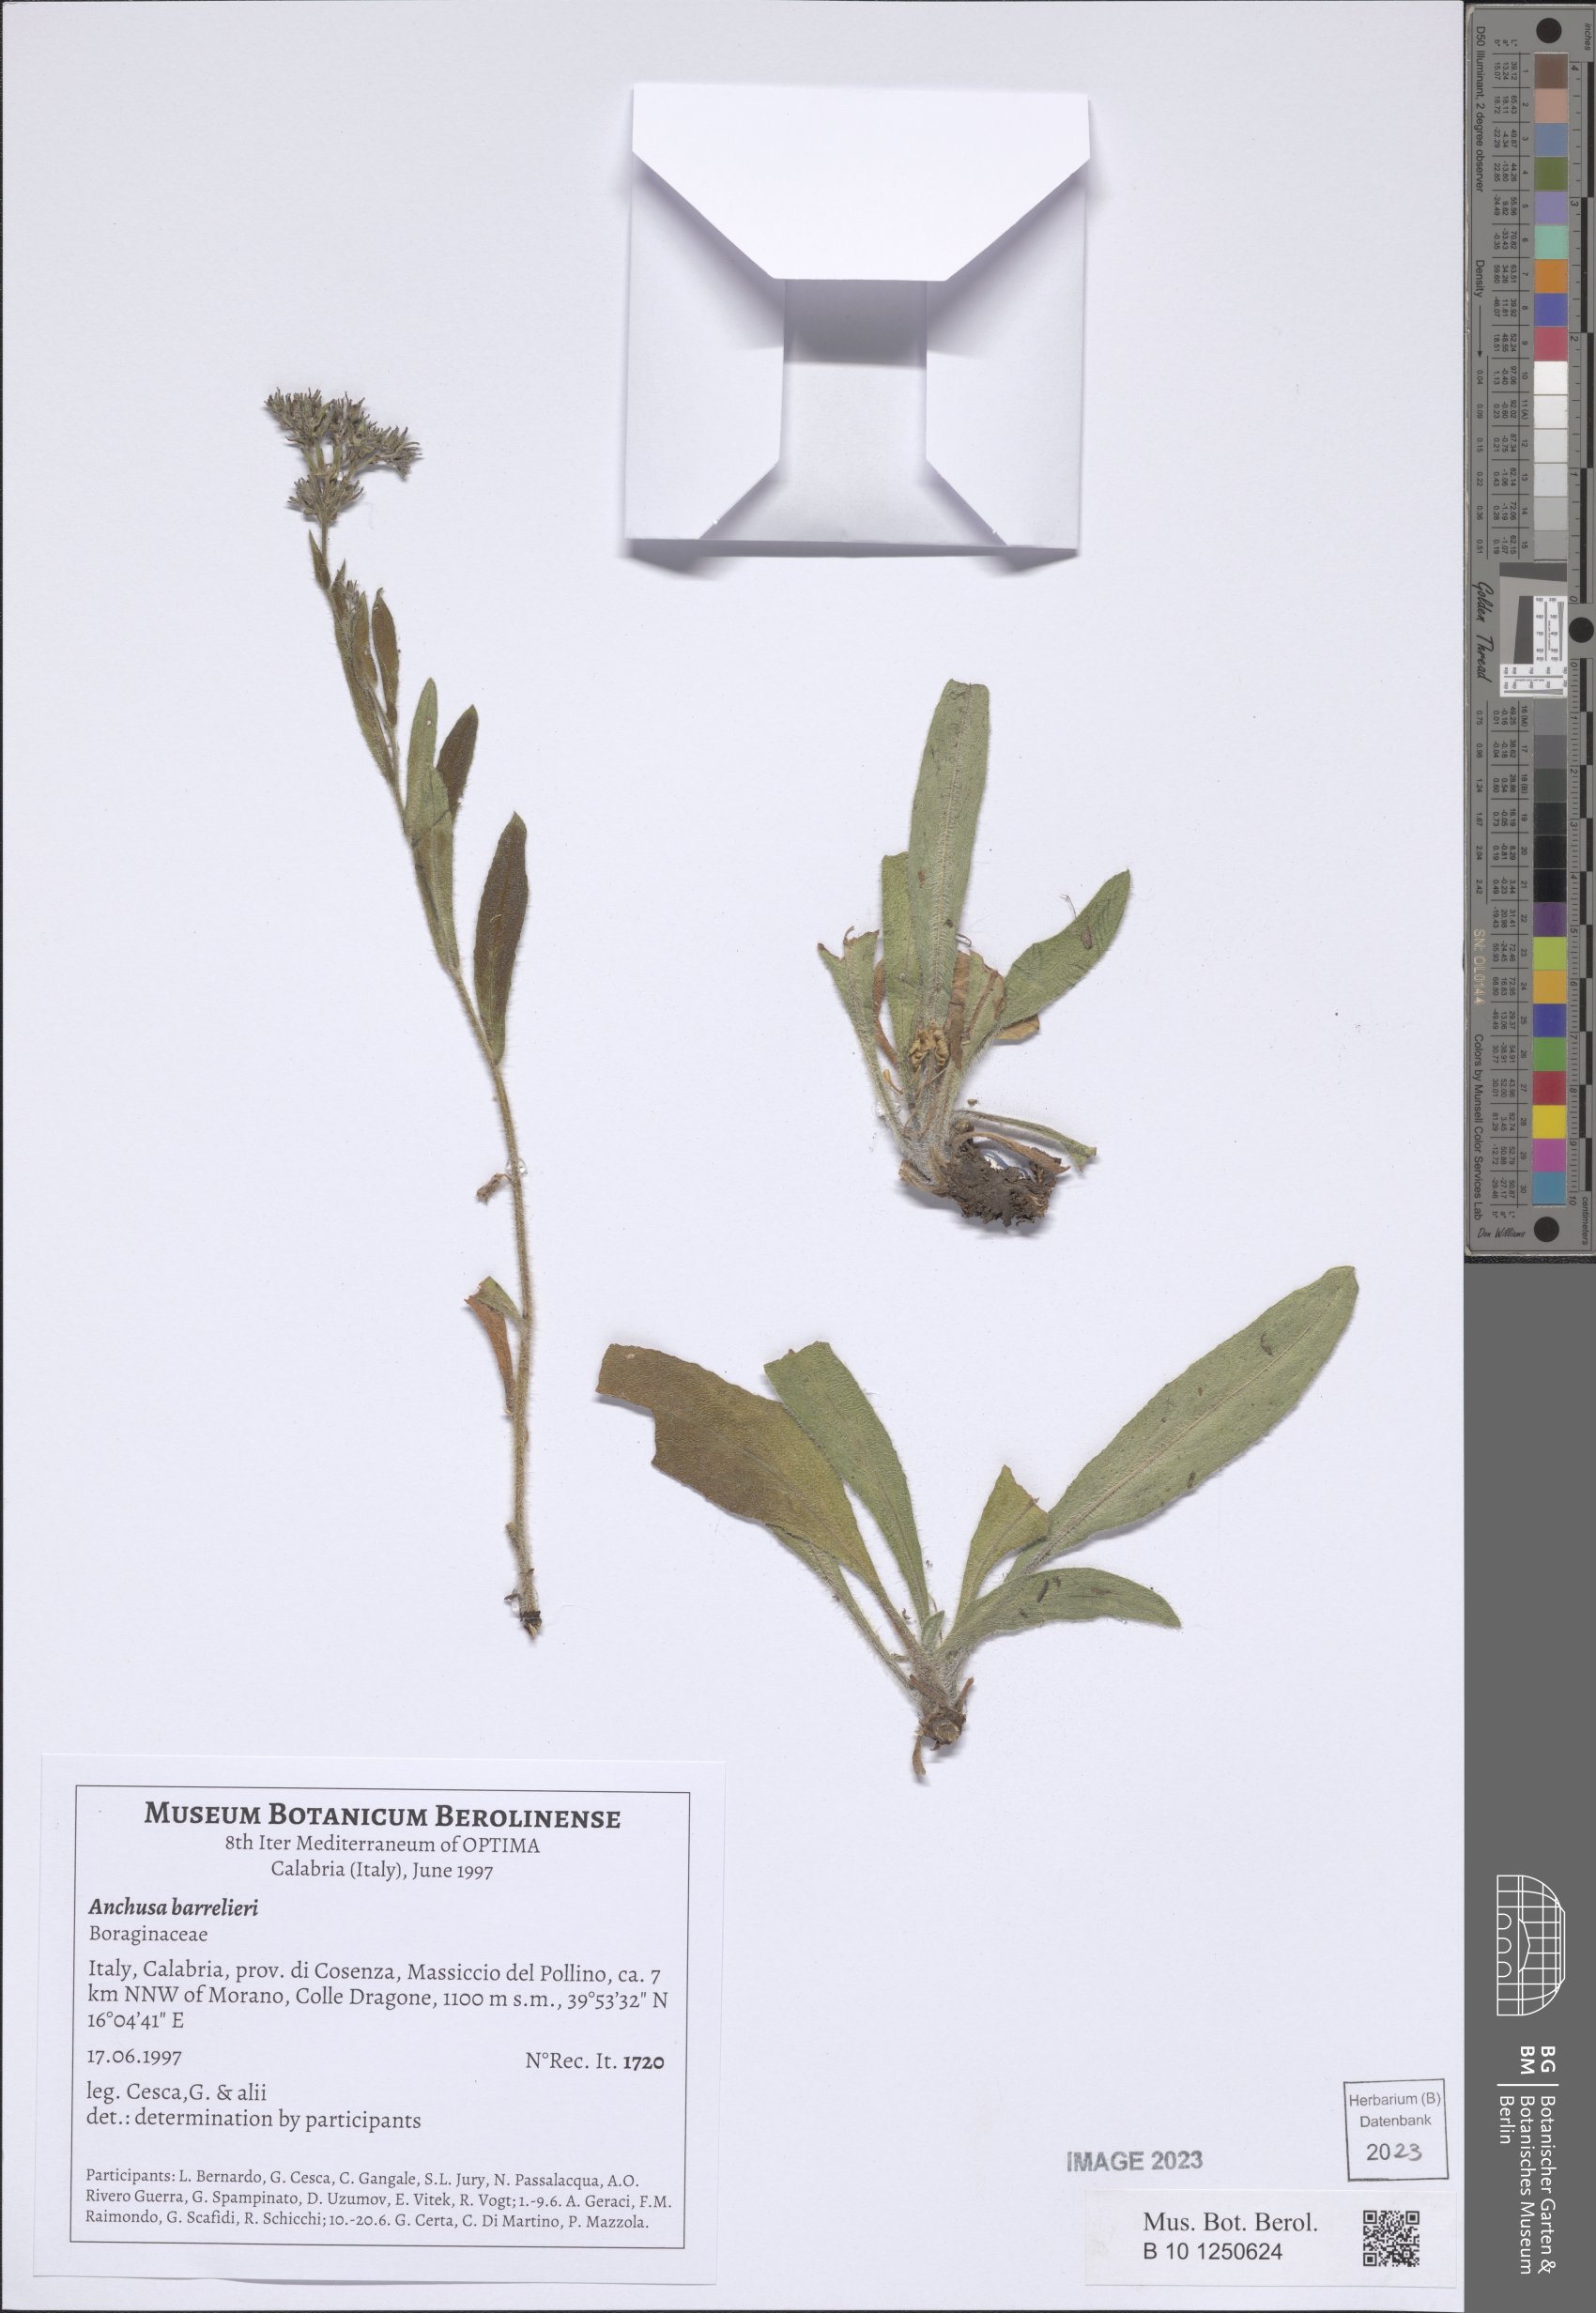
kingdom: Plantae
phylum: Tracheophyta
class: Magnoliopsida
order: Boraginales
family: Boraginaceae
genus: Cynoglottis
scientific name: Cynoglottis barrelieri
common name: False alkanet
